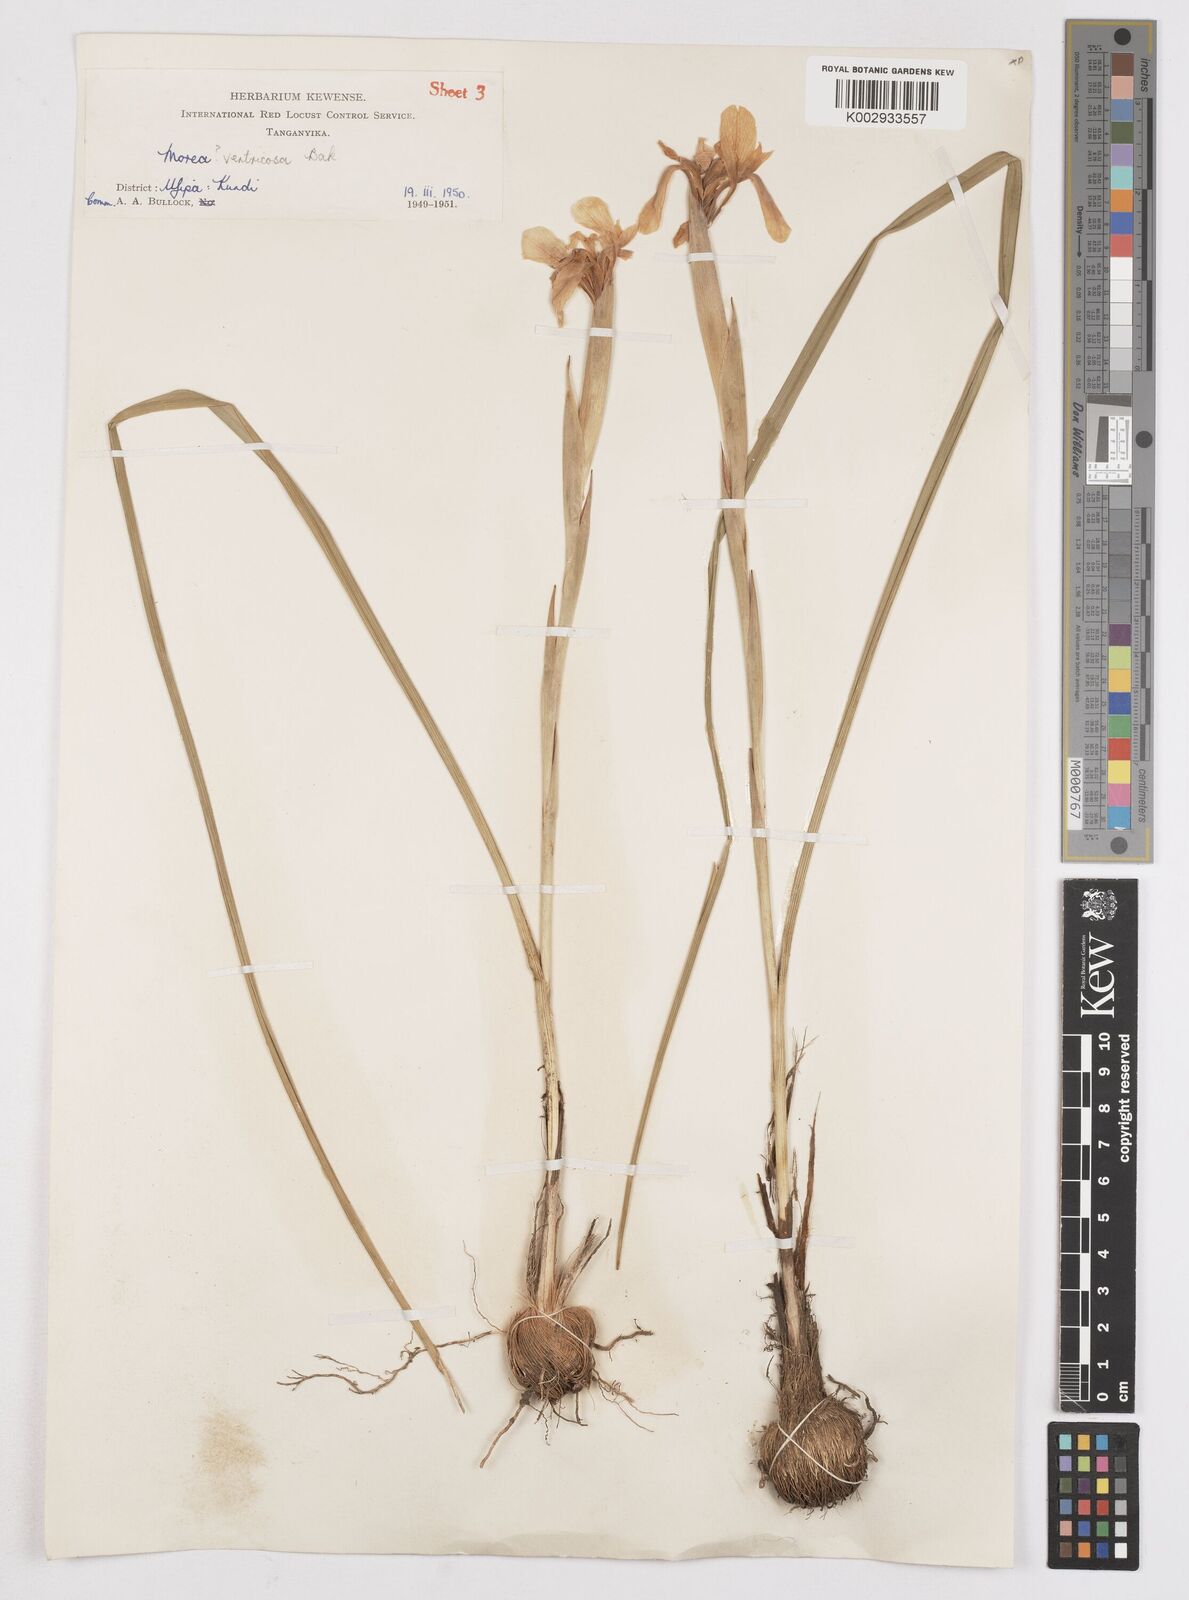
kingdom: Plantae
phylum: Tracheophyta
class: Liliopsida
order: Asparagales
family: Iridaceae
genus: Moraea
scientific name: Moraea ventricosa
